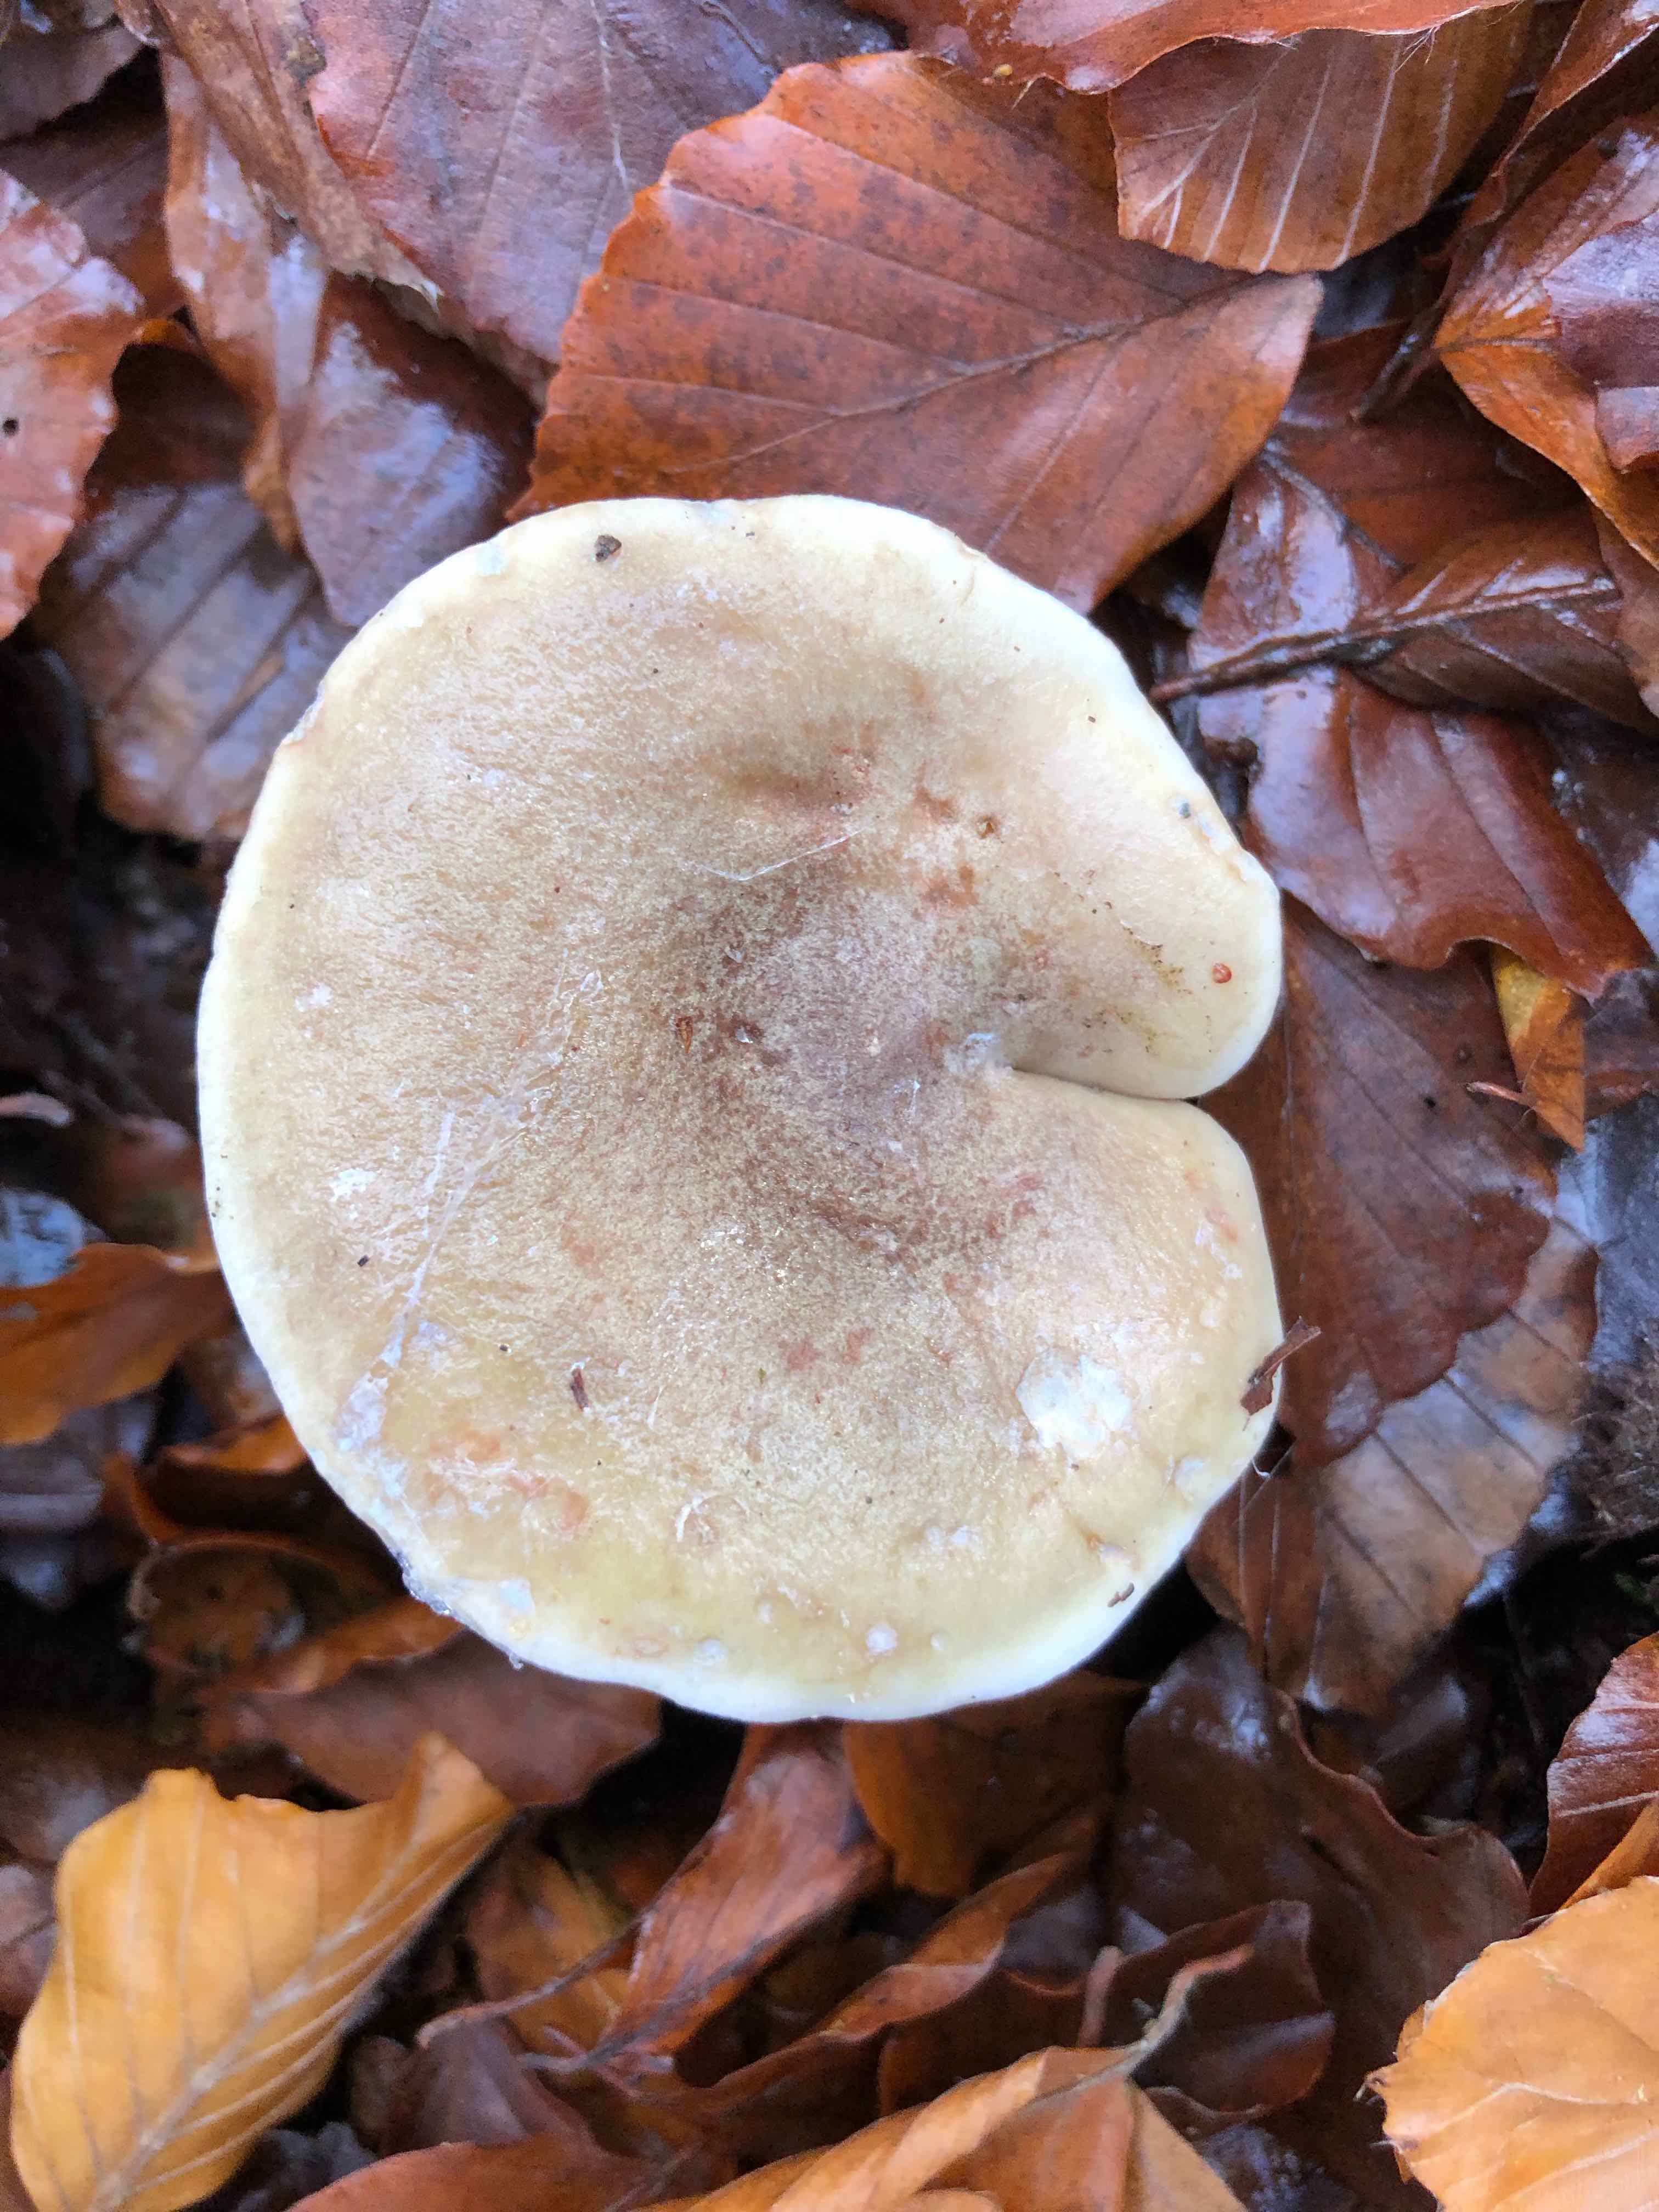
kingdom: Fungi
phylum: Basidiomycota
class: Agaricomycetes
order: Russulales
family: Russulaceae
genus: Lactarius
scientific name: Lactarius fluens
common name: lysrandet mælkehat
